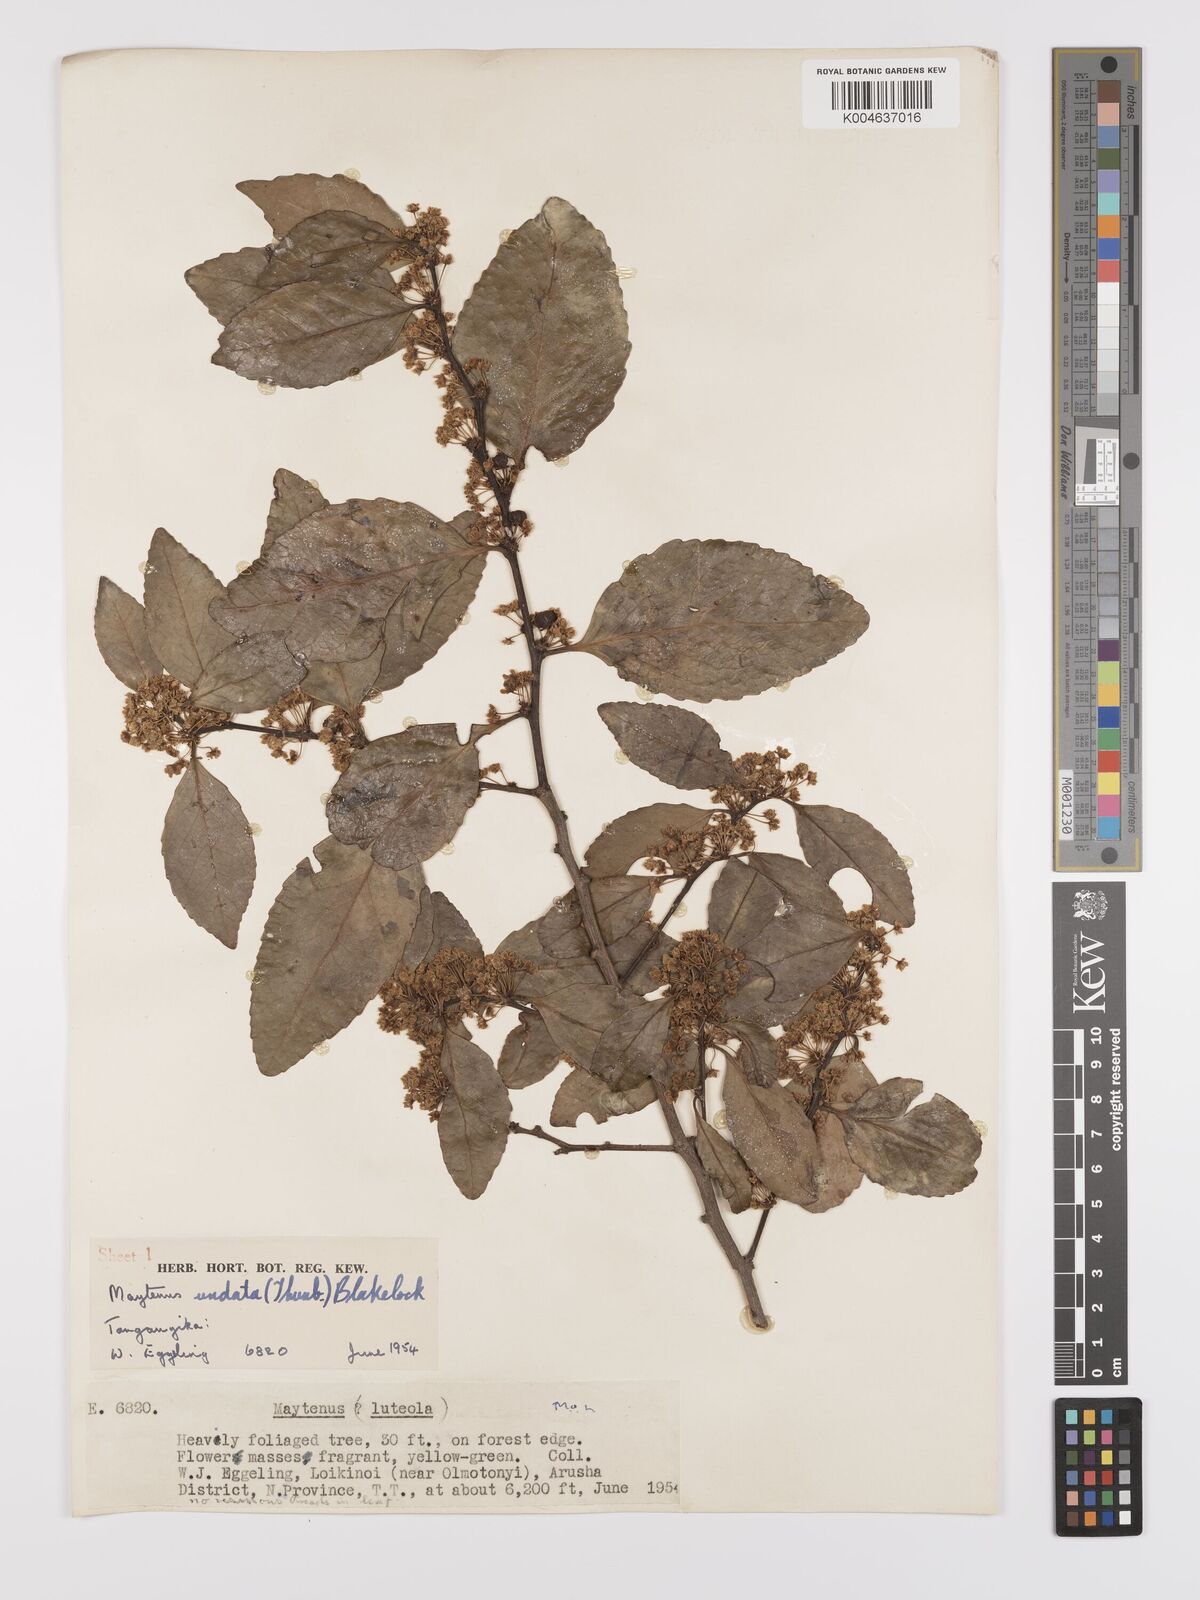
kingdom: Plantae
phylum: Tracheophyta
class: Magnoliopsida
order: Celastrales
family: Celastraceae
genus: Gymnosporia
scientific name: Gymnosporia undata
